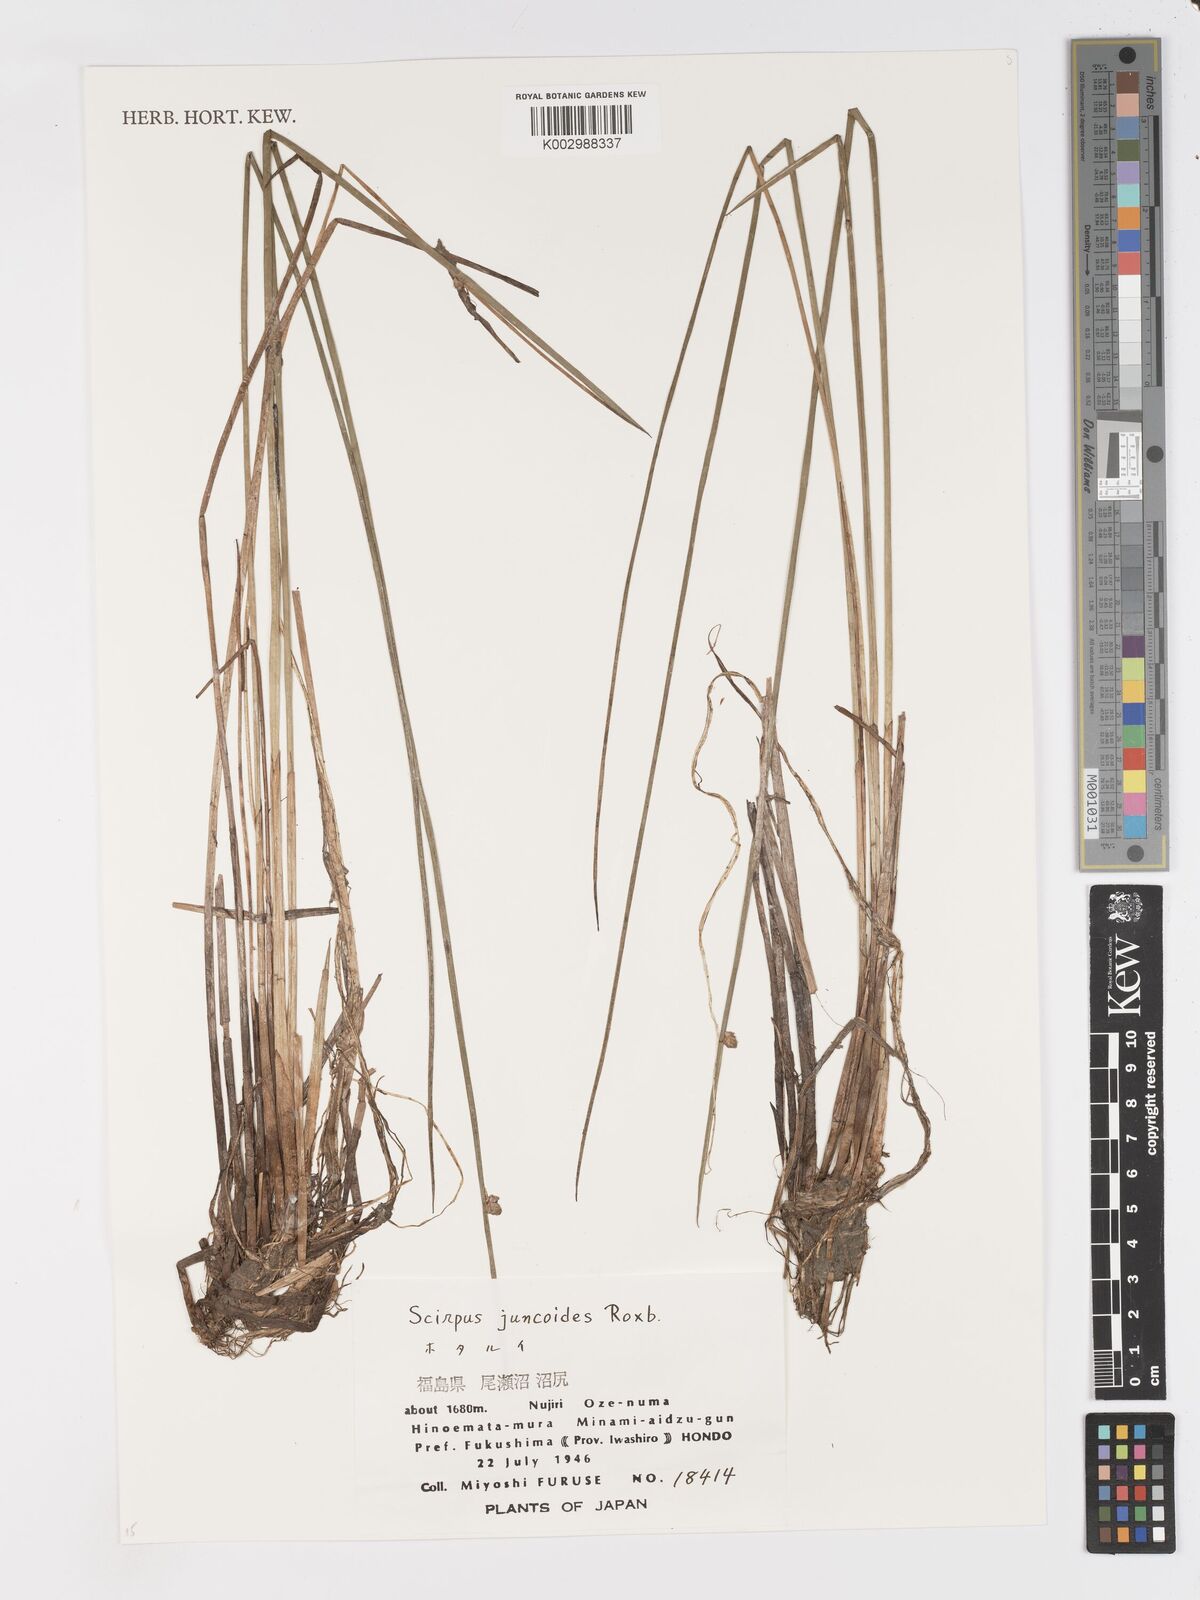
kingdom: Plantae
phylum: Tracheophyta
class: Liliopsida
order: Poales
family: Cyperaceae
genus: Schoenoplectiella
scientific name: Schoenoplectiella juncoides
